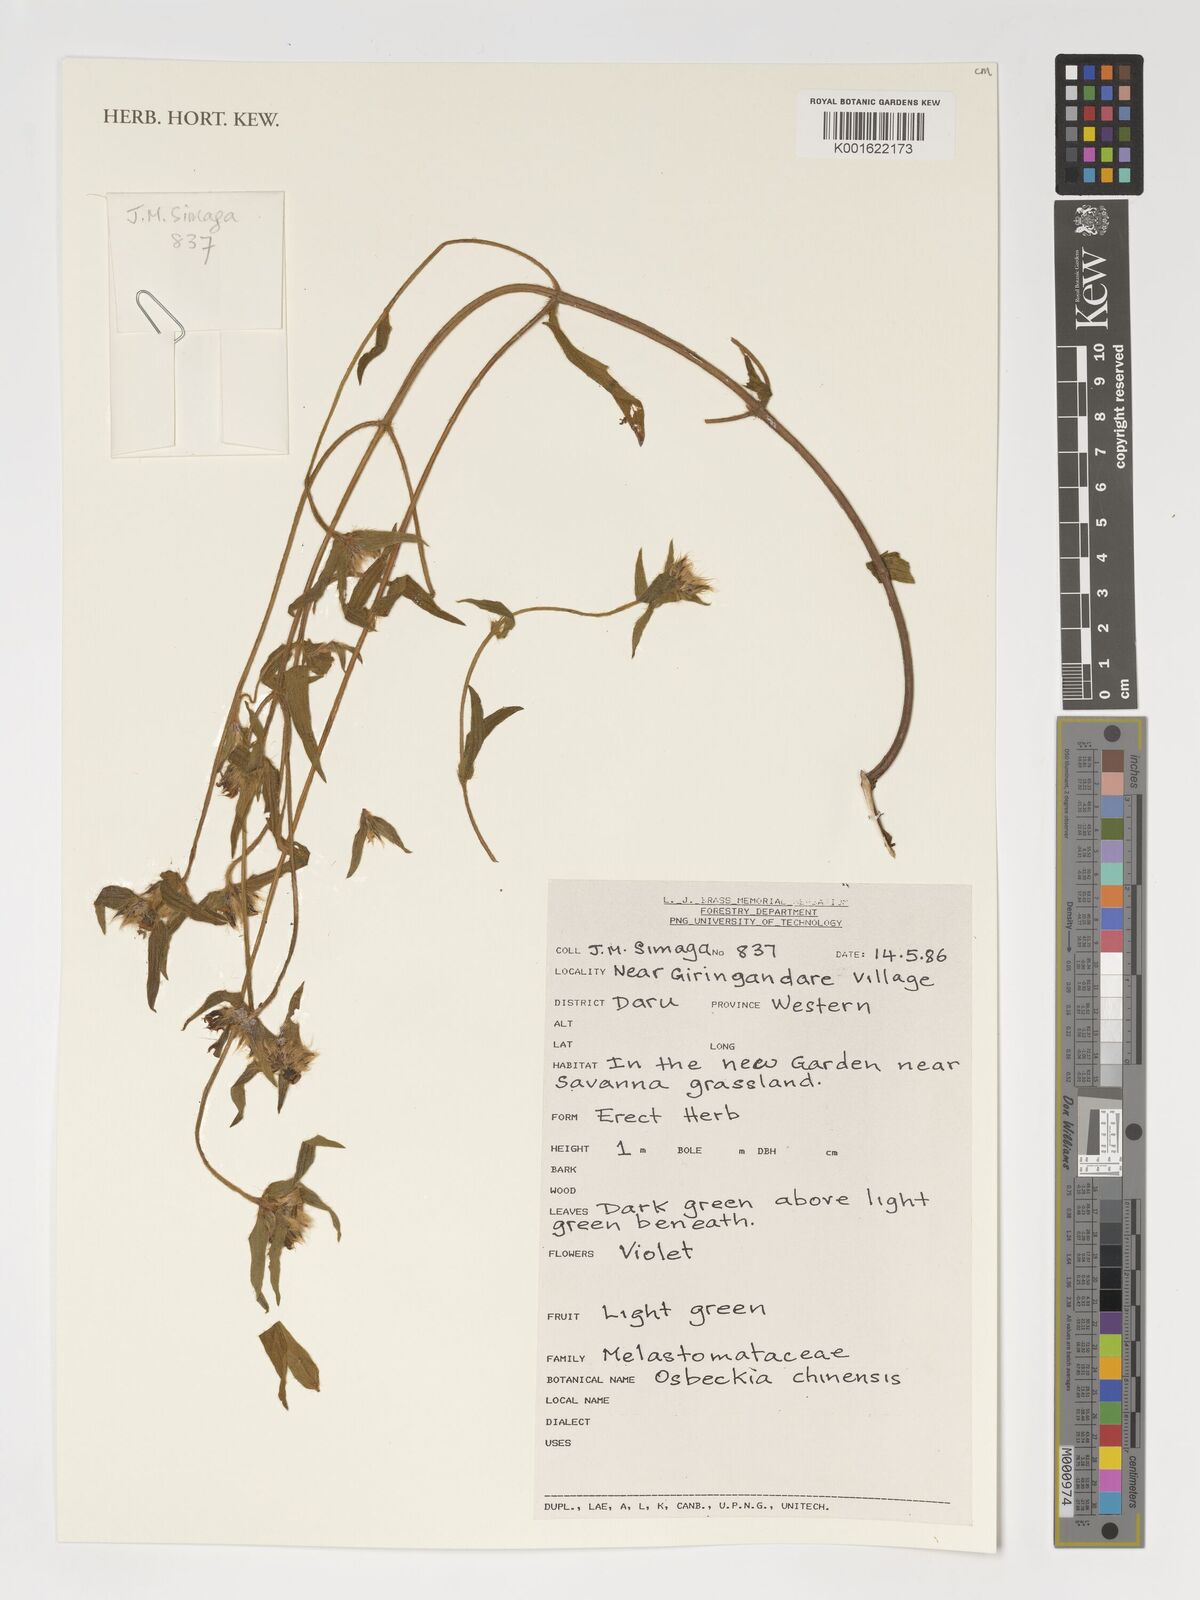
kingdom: Plantae
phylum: Tracheophyta
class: Magnoliopsida
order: Myrtales
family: Melastomataceae
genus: Osbeckia
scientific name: Osbeckia chinensis
